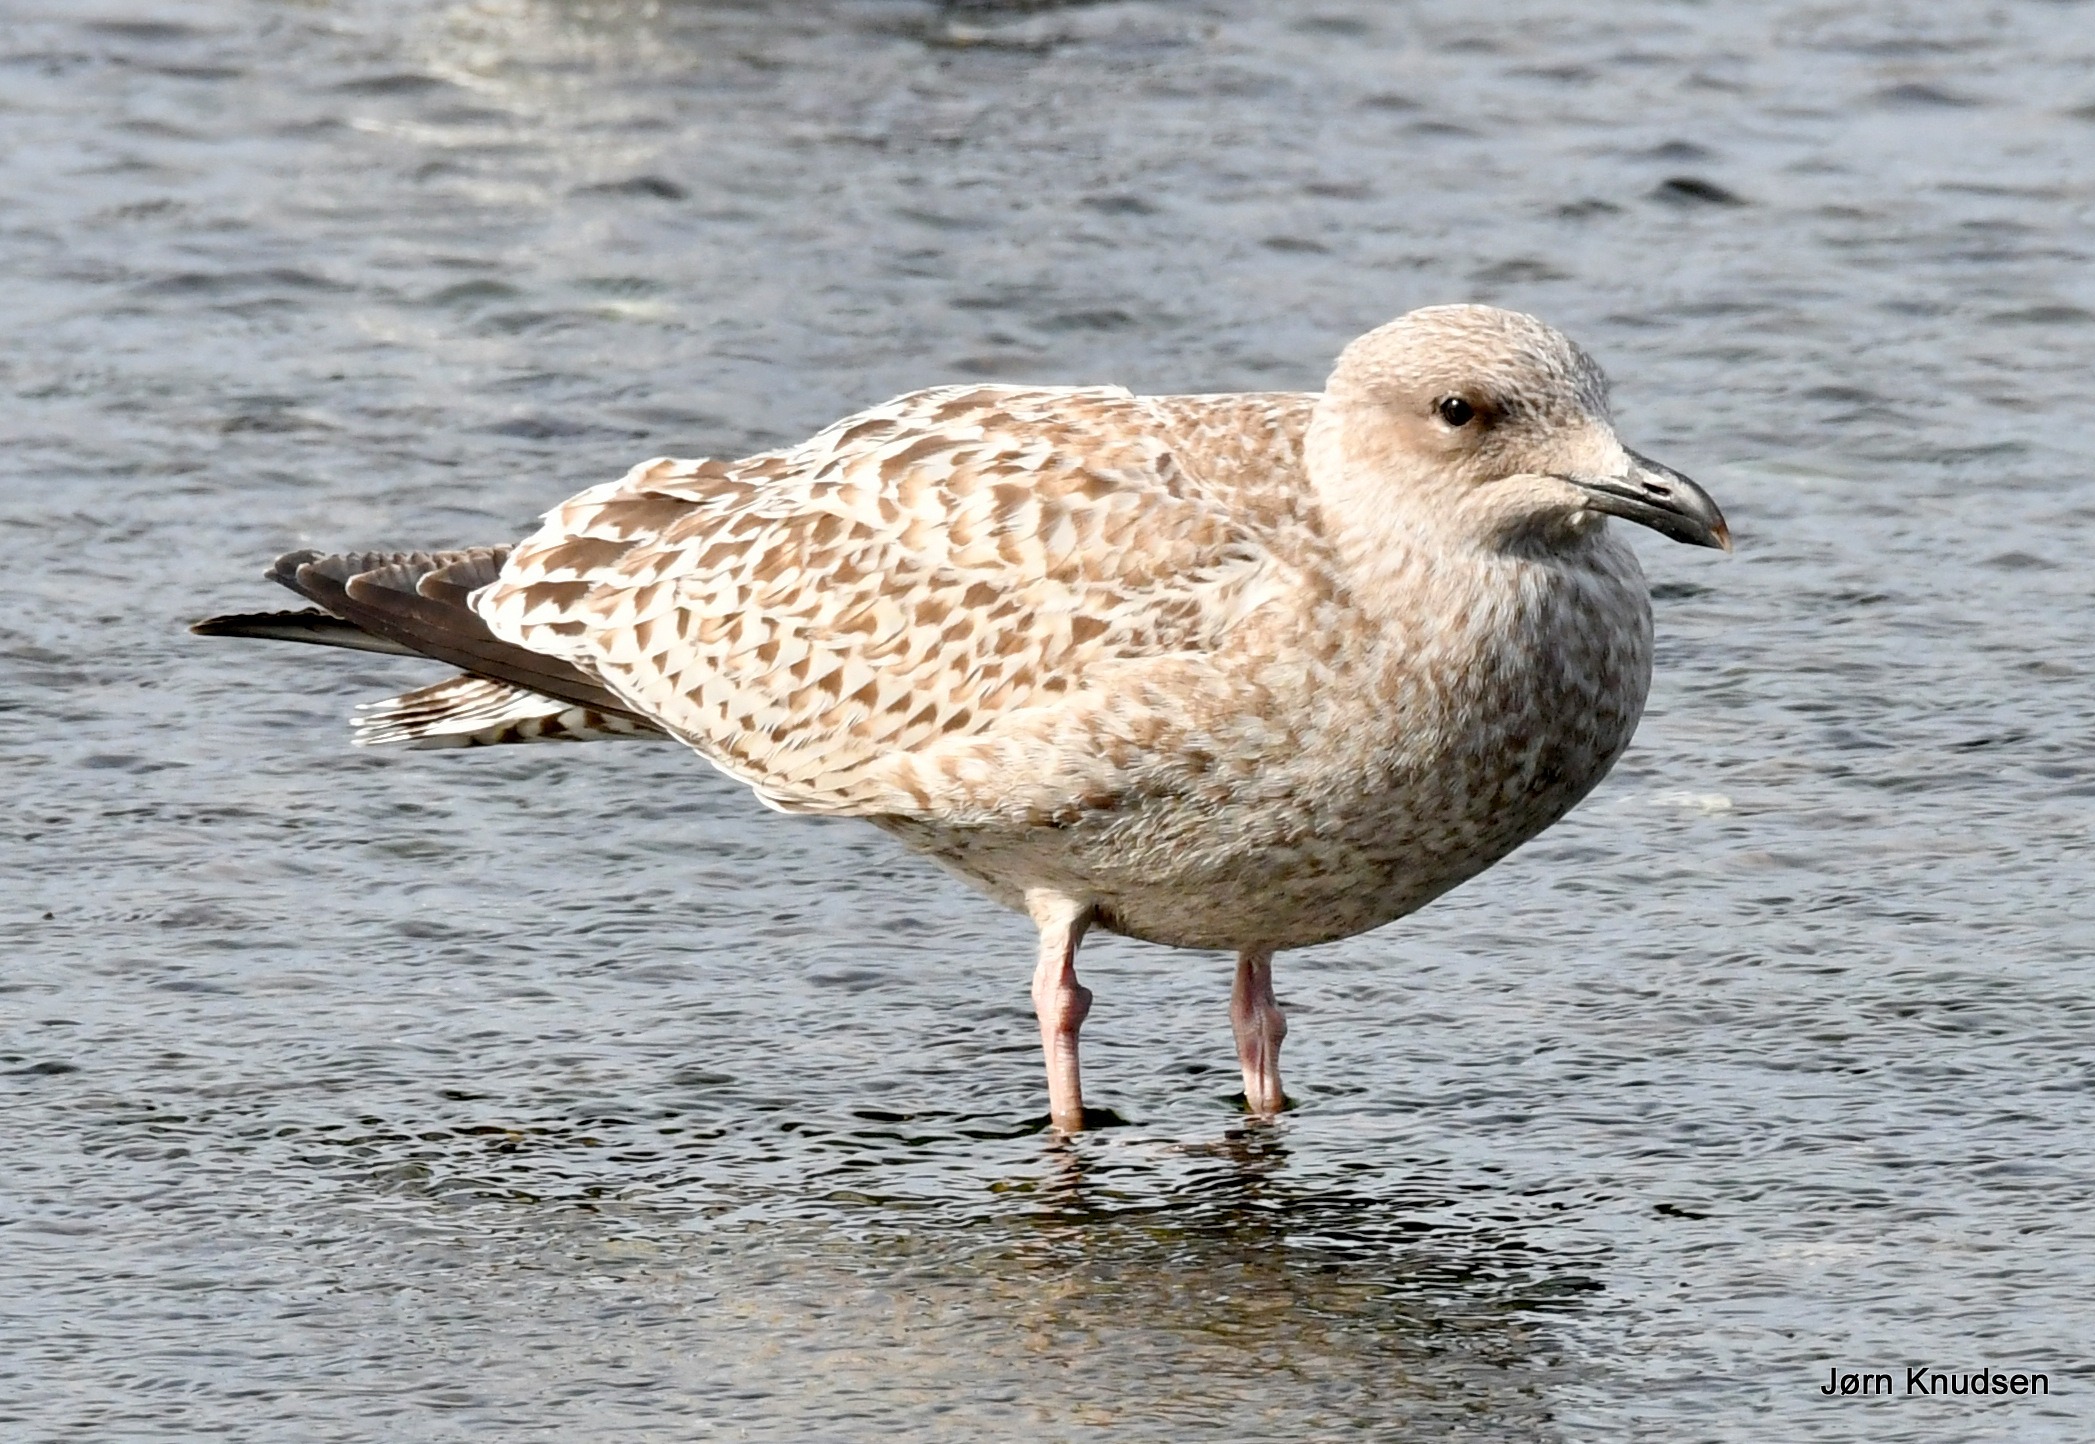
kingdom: Animalia
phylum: Chordata
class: Aves
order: Charadriiformes
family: Laridae
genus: Larus
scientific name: Larus argentatus
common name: Sølvmåge
